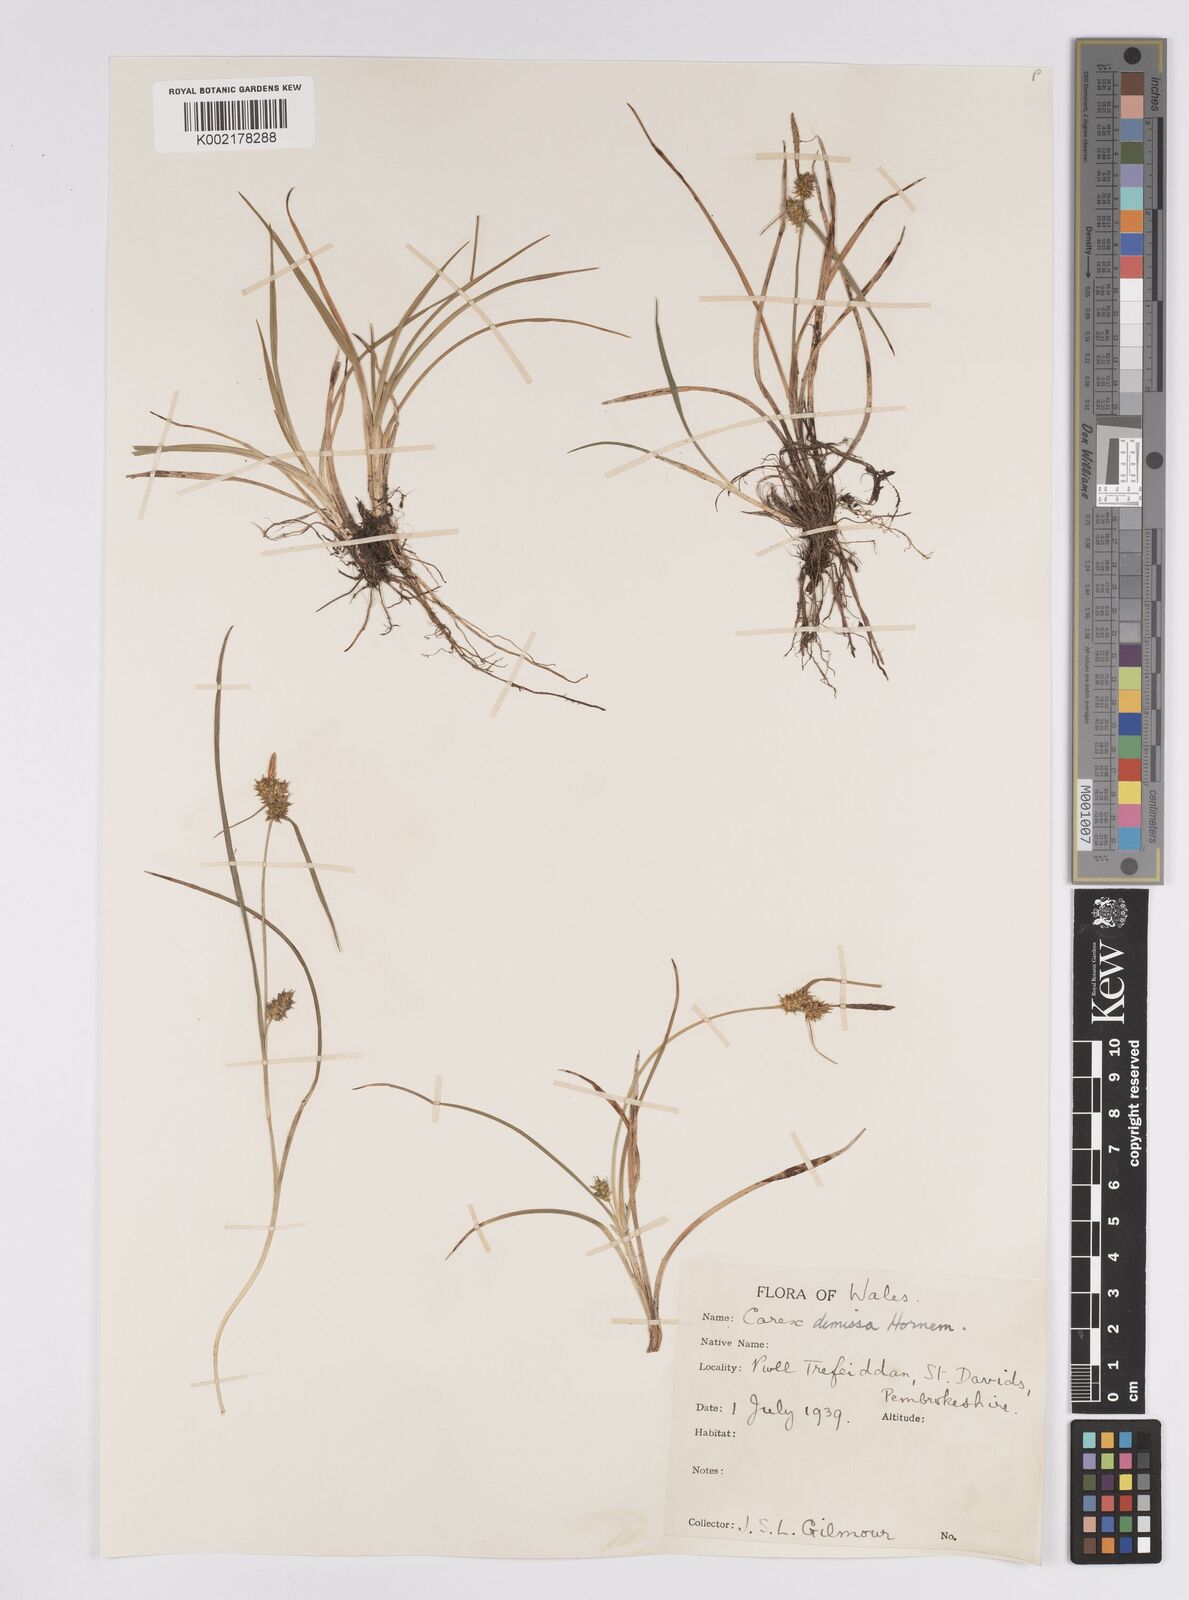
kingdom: Plantae
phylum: Tracheophyta
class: Liliopsida
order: Poales
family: Cyperaceae
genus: Carex
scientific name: Carex demissa
